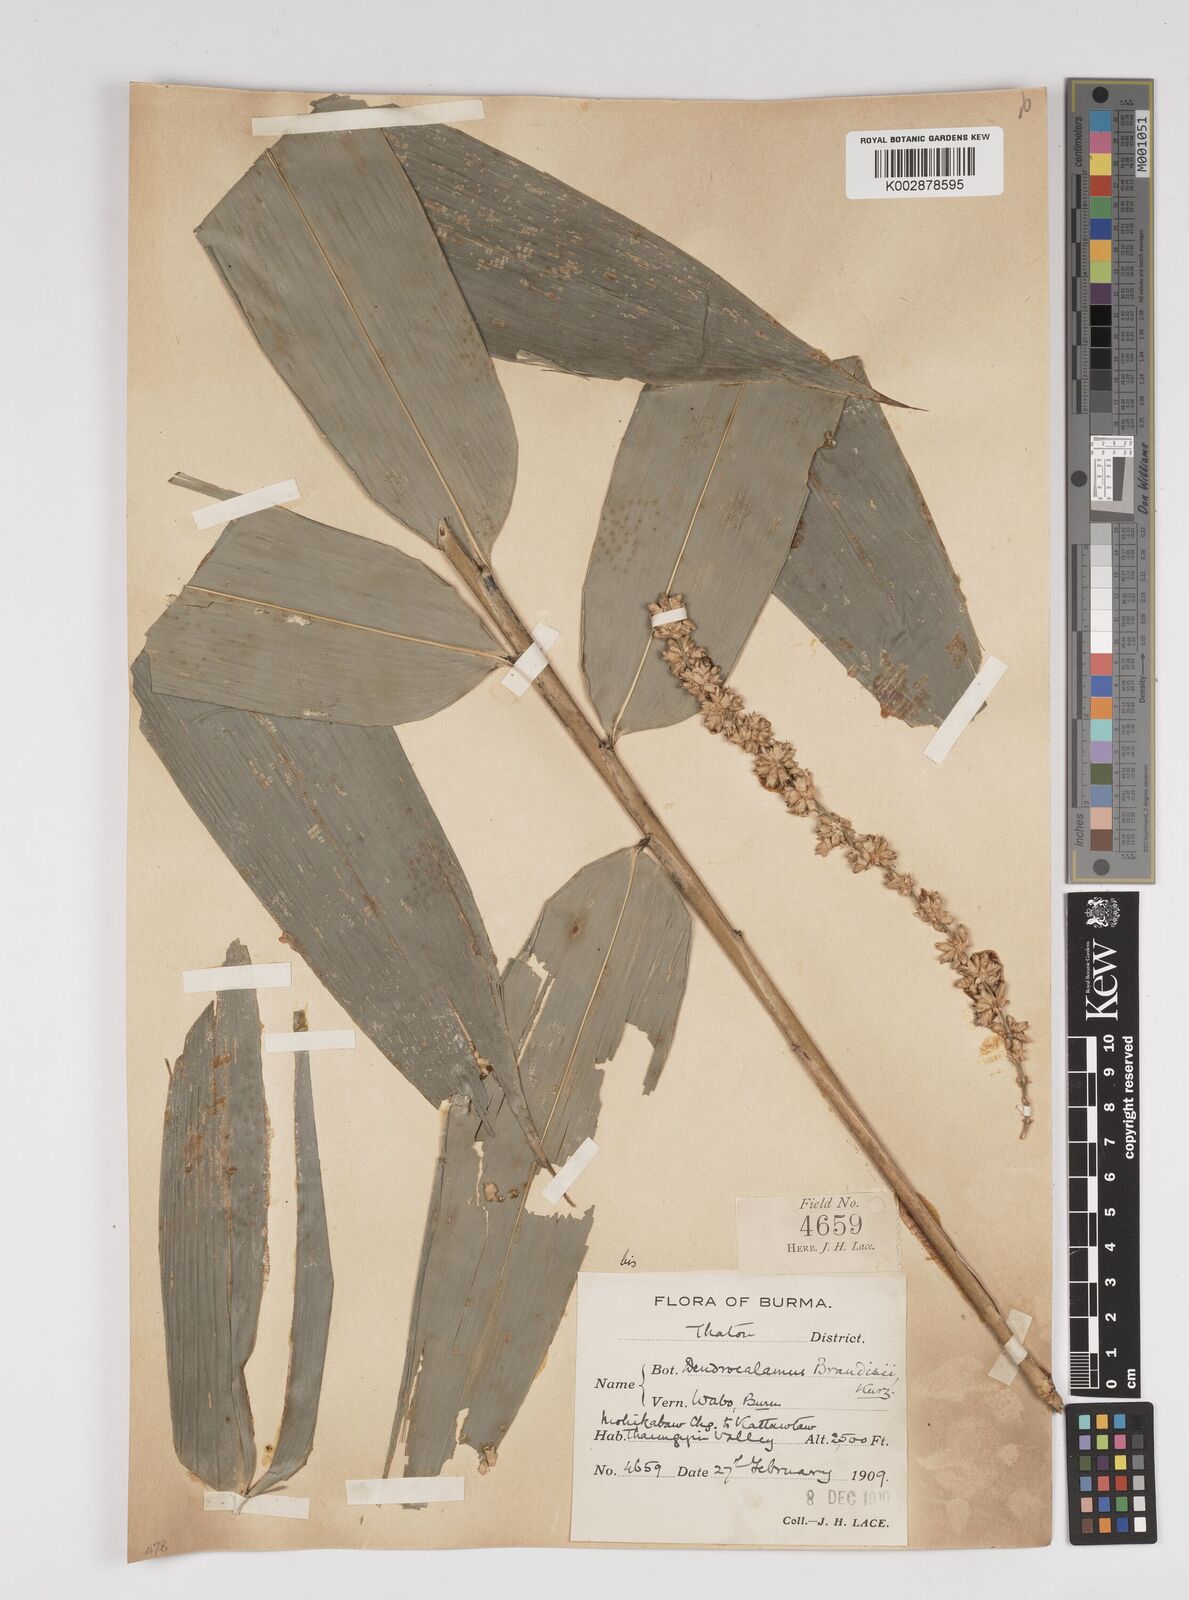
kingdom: Plantae
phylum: Tracheophyta
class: Liliopsida
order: Poales
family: Poaceae
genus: Dendrocalamus
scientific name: Dendrocalamus brandisii
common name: Velvetleaf bamboo
